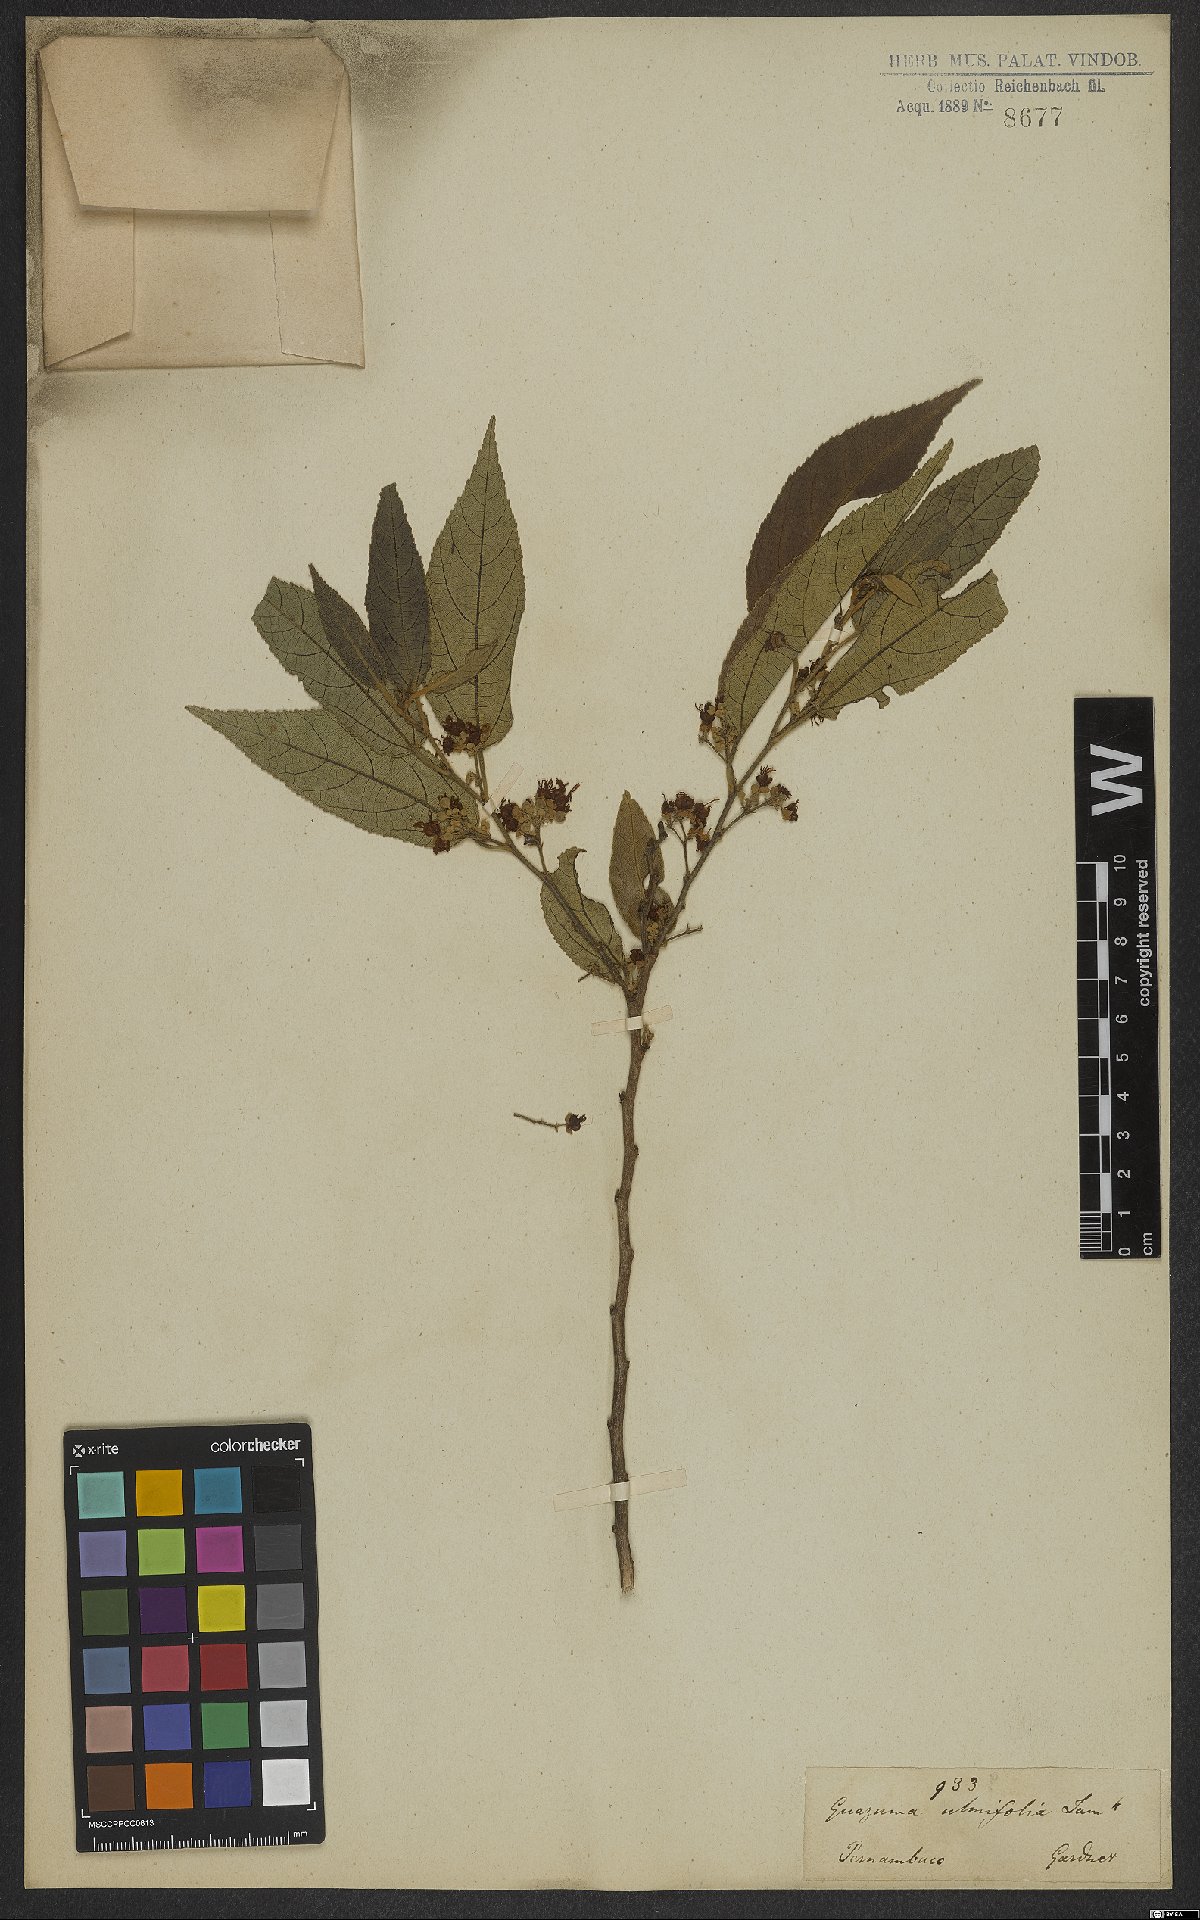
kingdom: Plantae
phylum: Tracheophyta
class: Magnoliopsida
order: Malvales
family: Malvaceae
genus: Guazuma
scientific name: Guazuma ulmifolia
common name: Bastard-cedar
